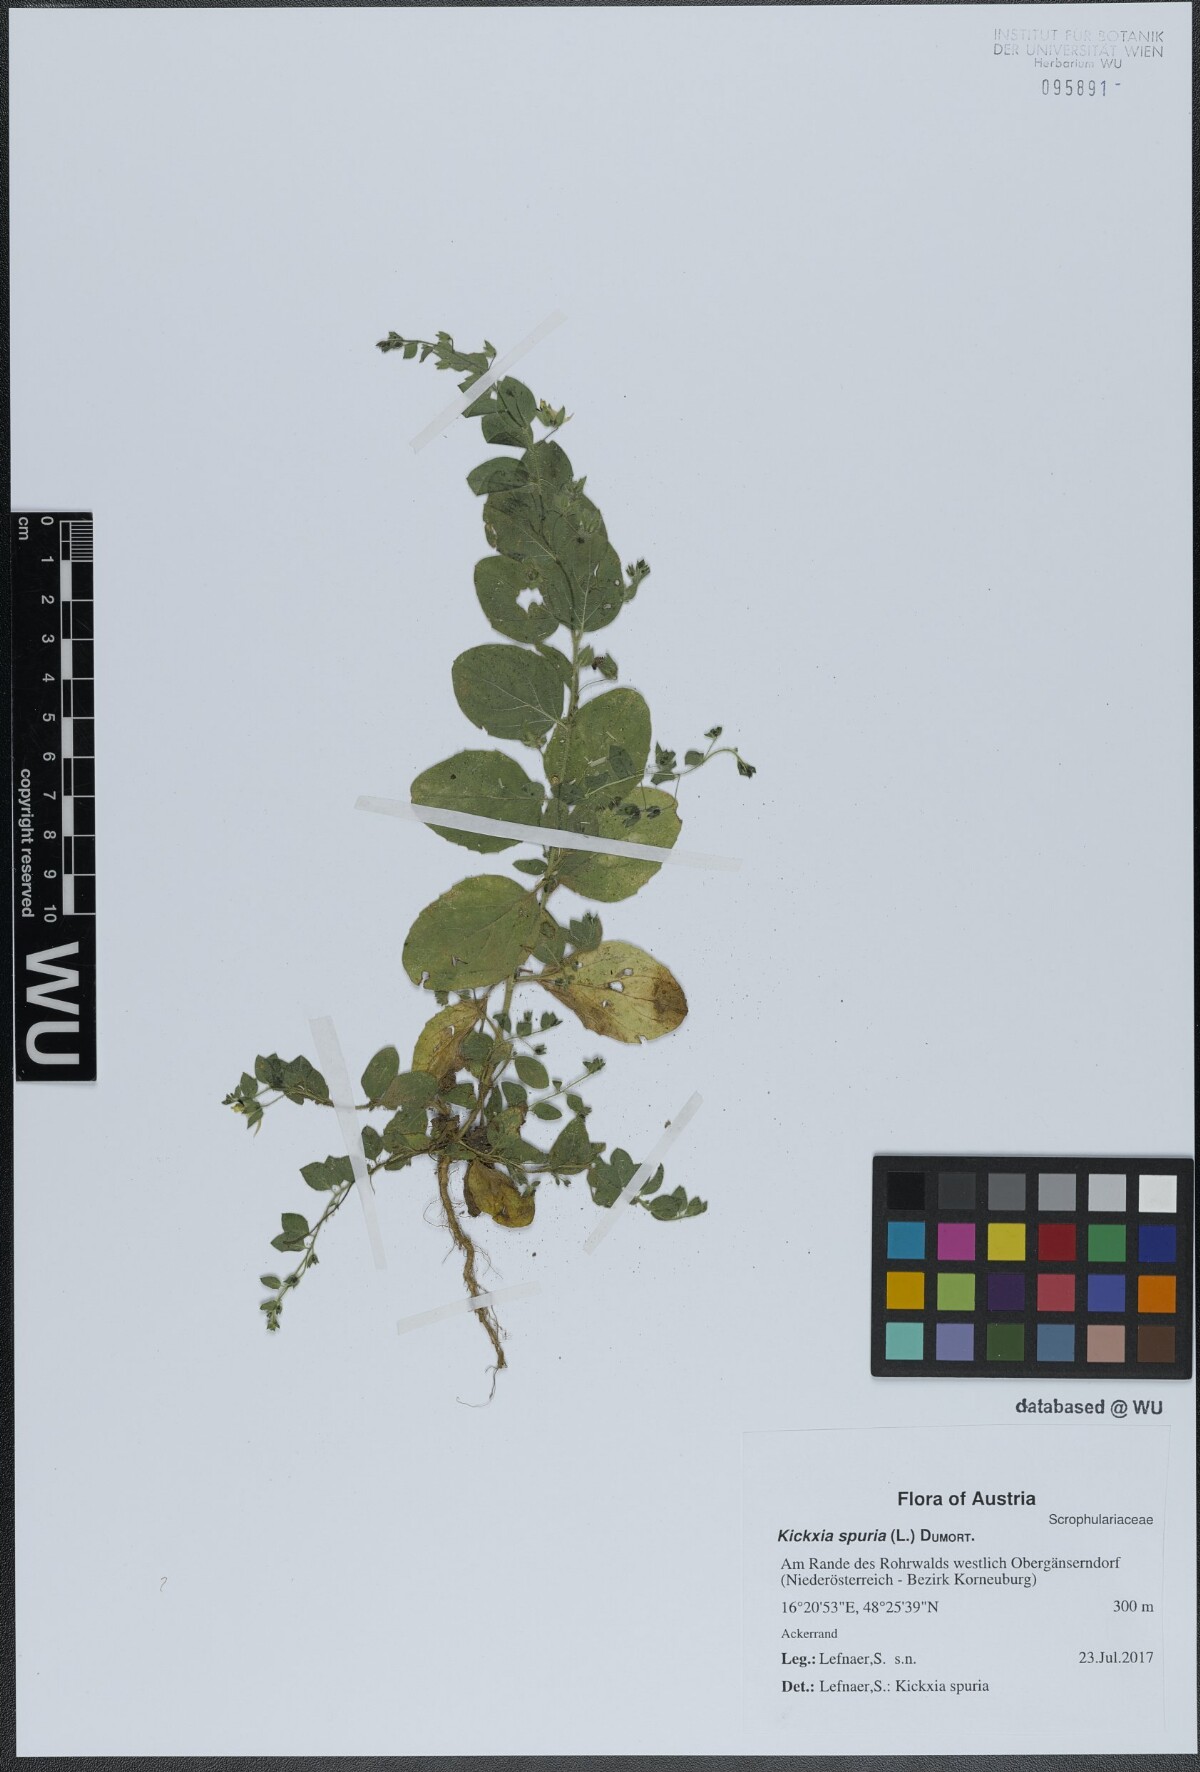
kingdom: Plantae
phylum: Tracheophyta
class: Magnoliopsida
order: Lamiales
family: Plantaginaceae
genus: Kickxia
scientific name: Kickxia spuria
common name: Round-leaved fluellen
